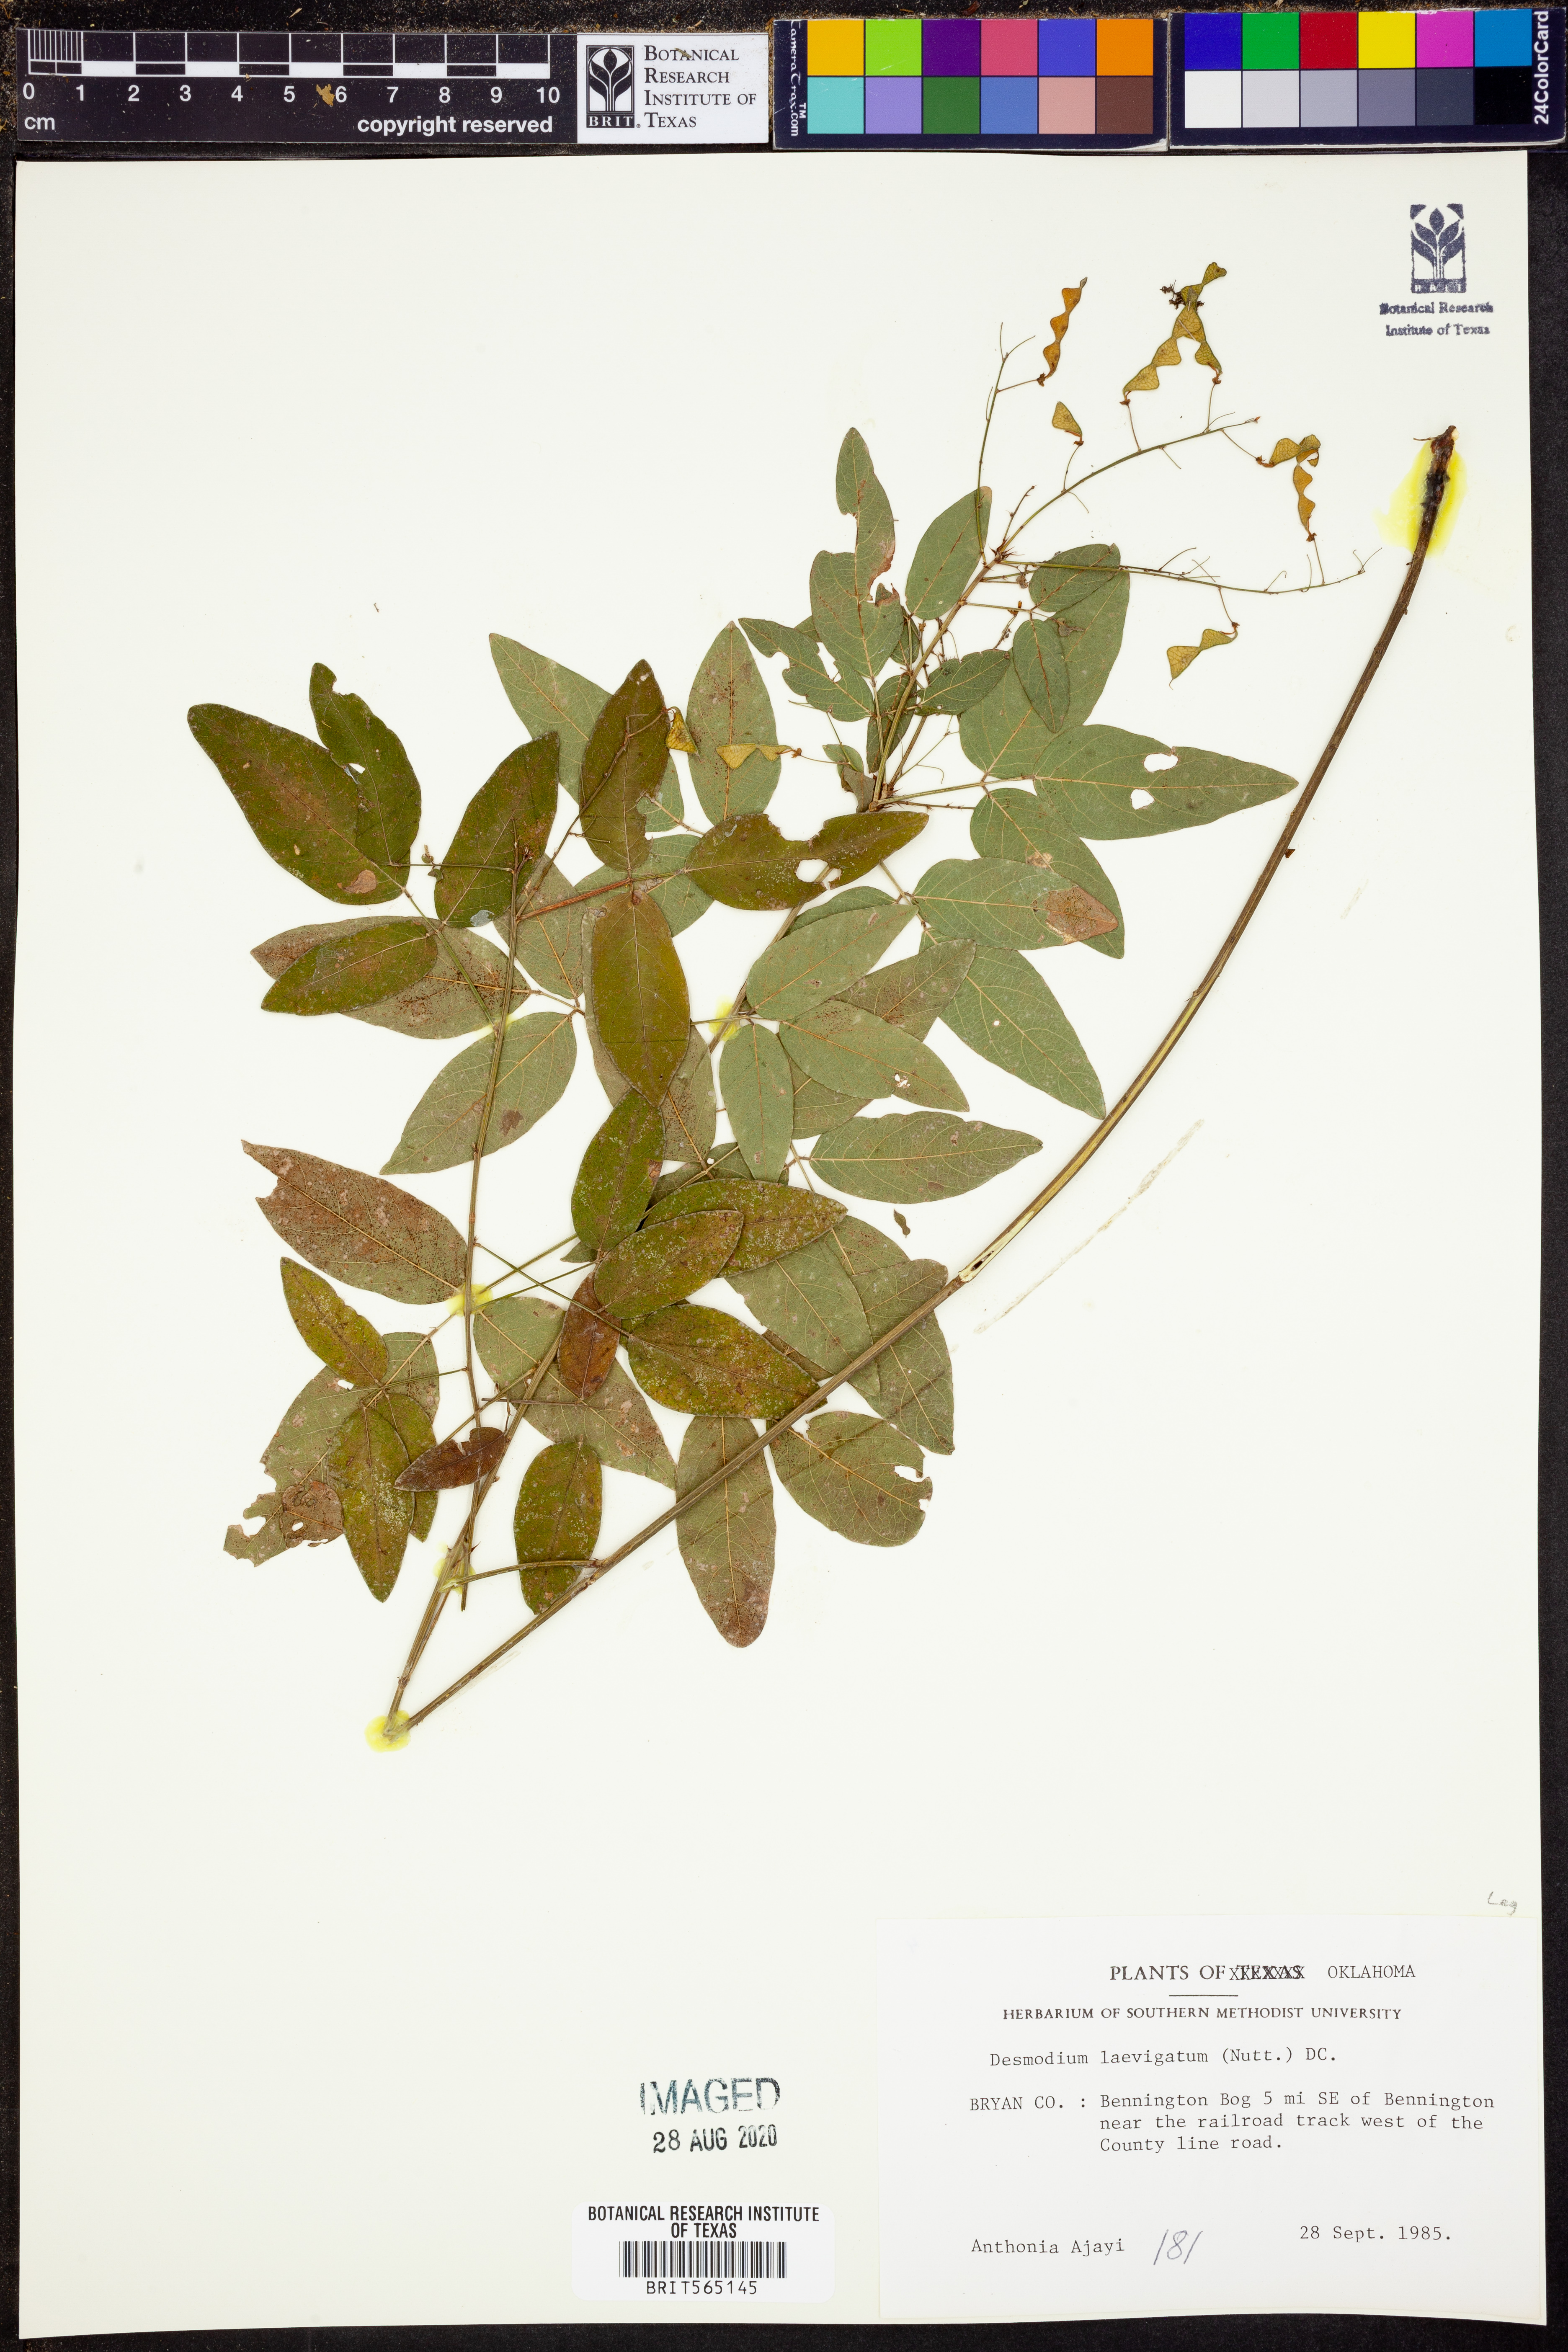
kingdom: Plantae
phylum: Tracheophyta
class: Magnoliopsida
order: Fabales
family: Fabaceae
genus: Desmodium
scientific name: Desmodium laevigatum
